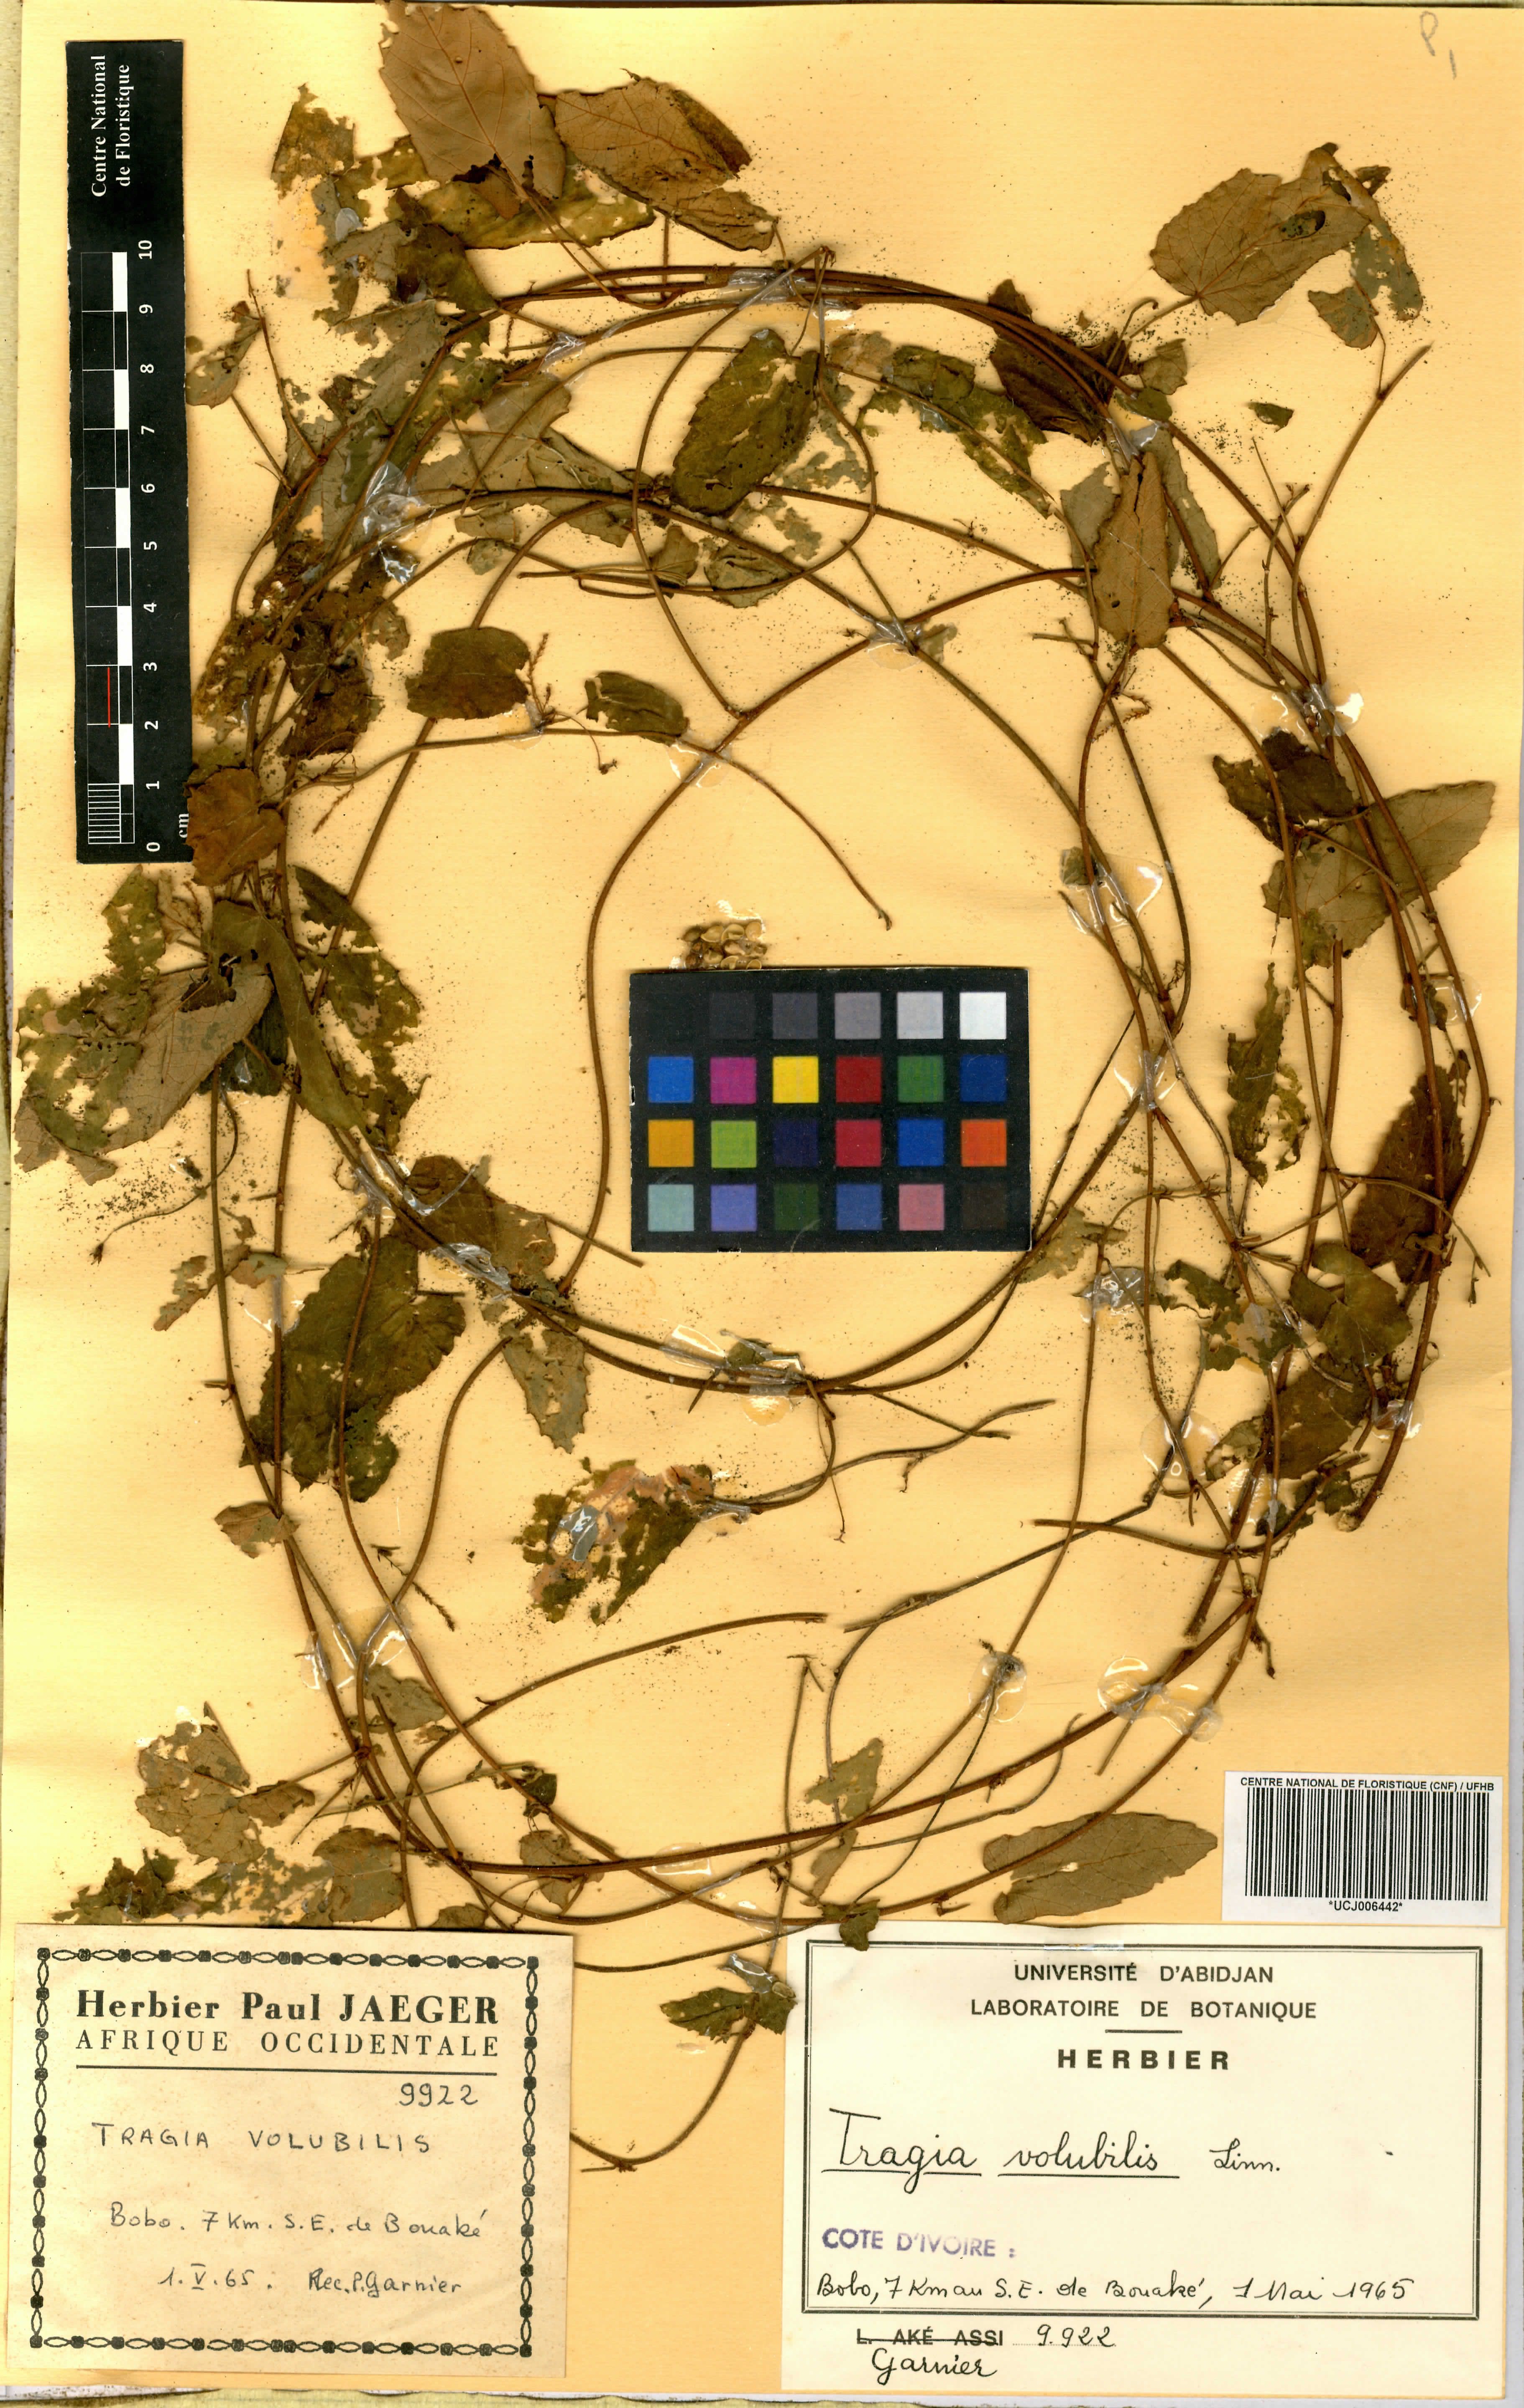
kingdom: Plantae
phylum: Tracheophyta
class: Magnoliopsida
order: Malpighiales
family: Euphorbiaceae
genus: Tragia
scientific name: Tragia volubilis
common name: Twining cow-itch
